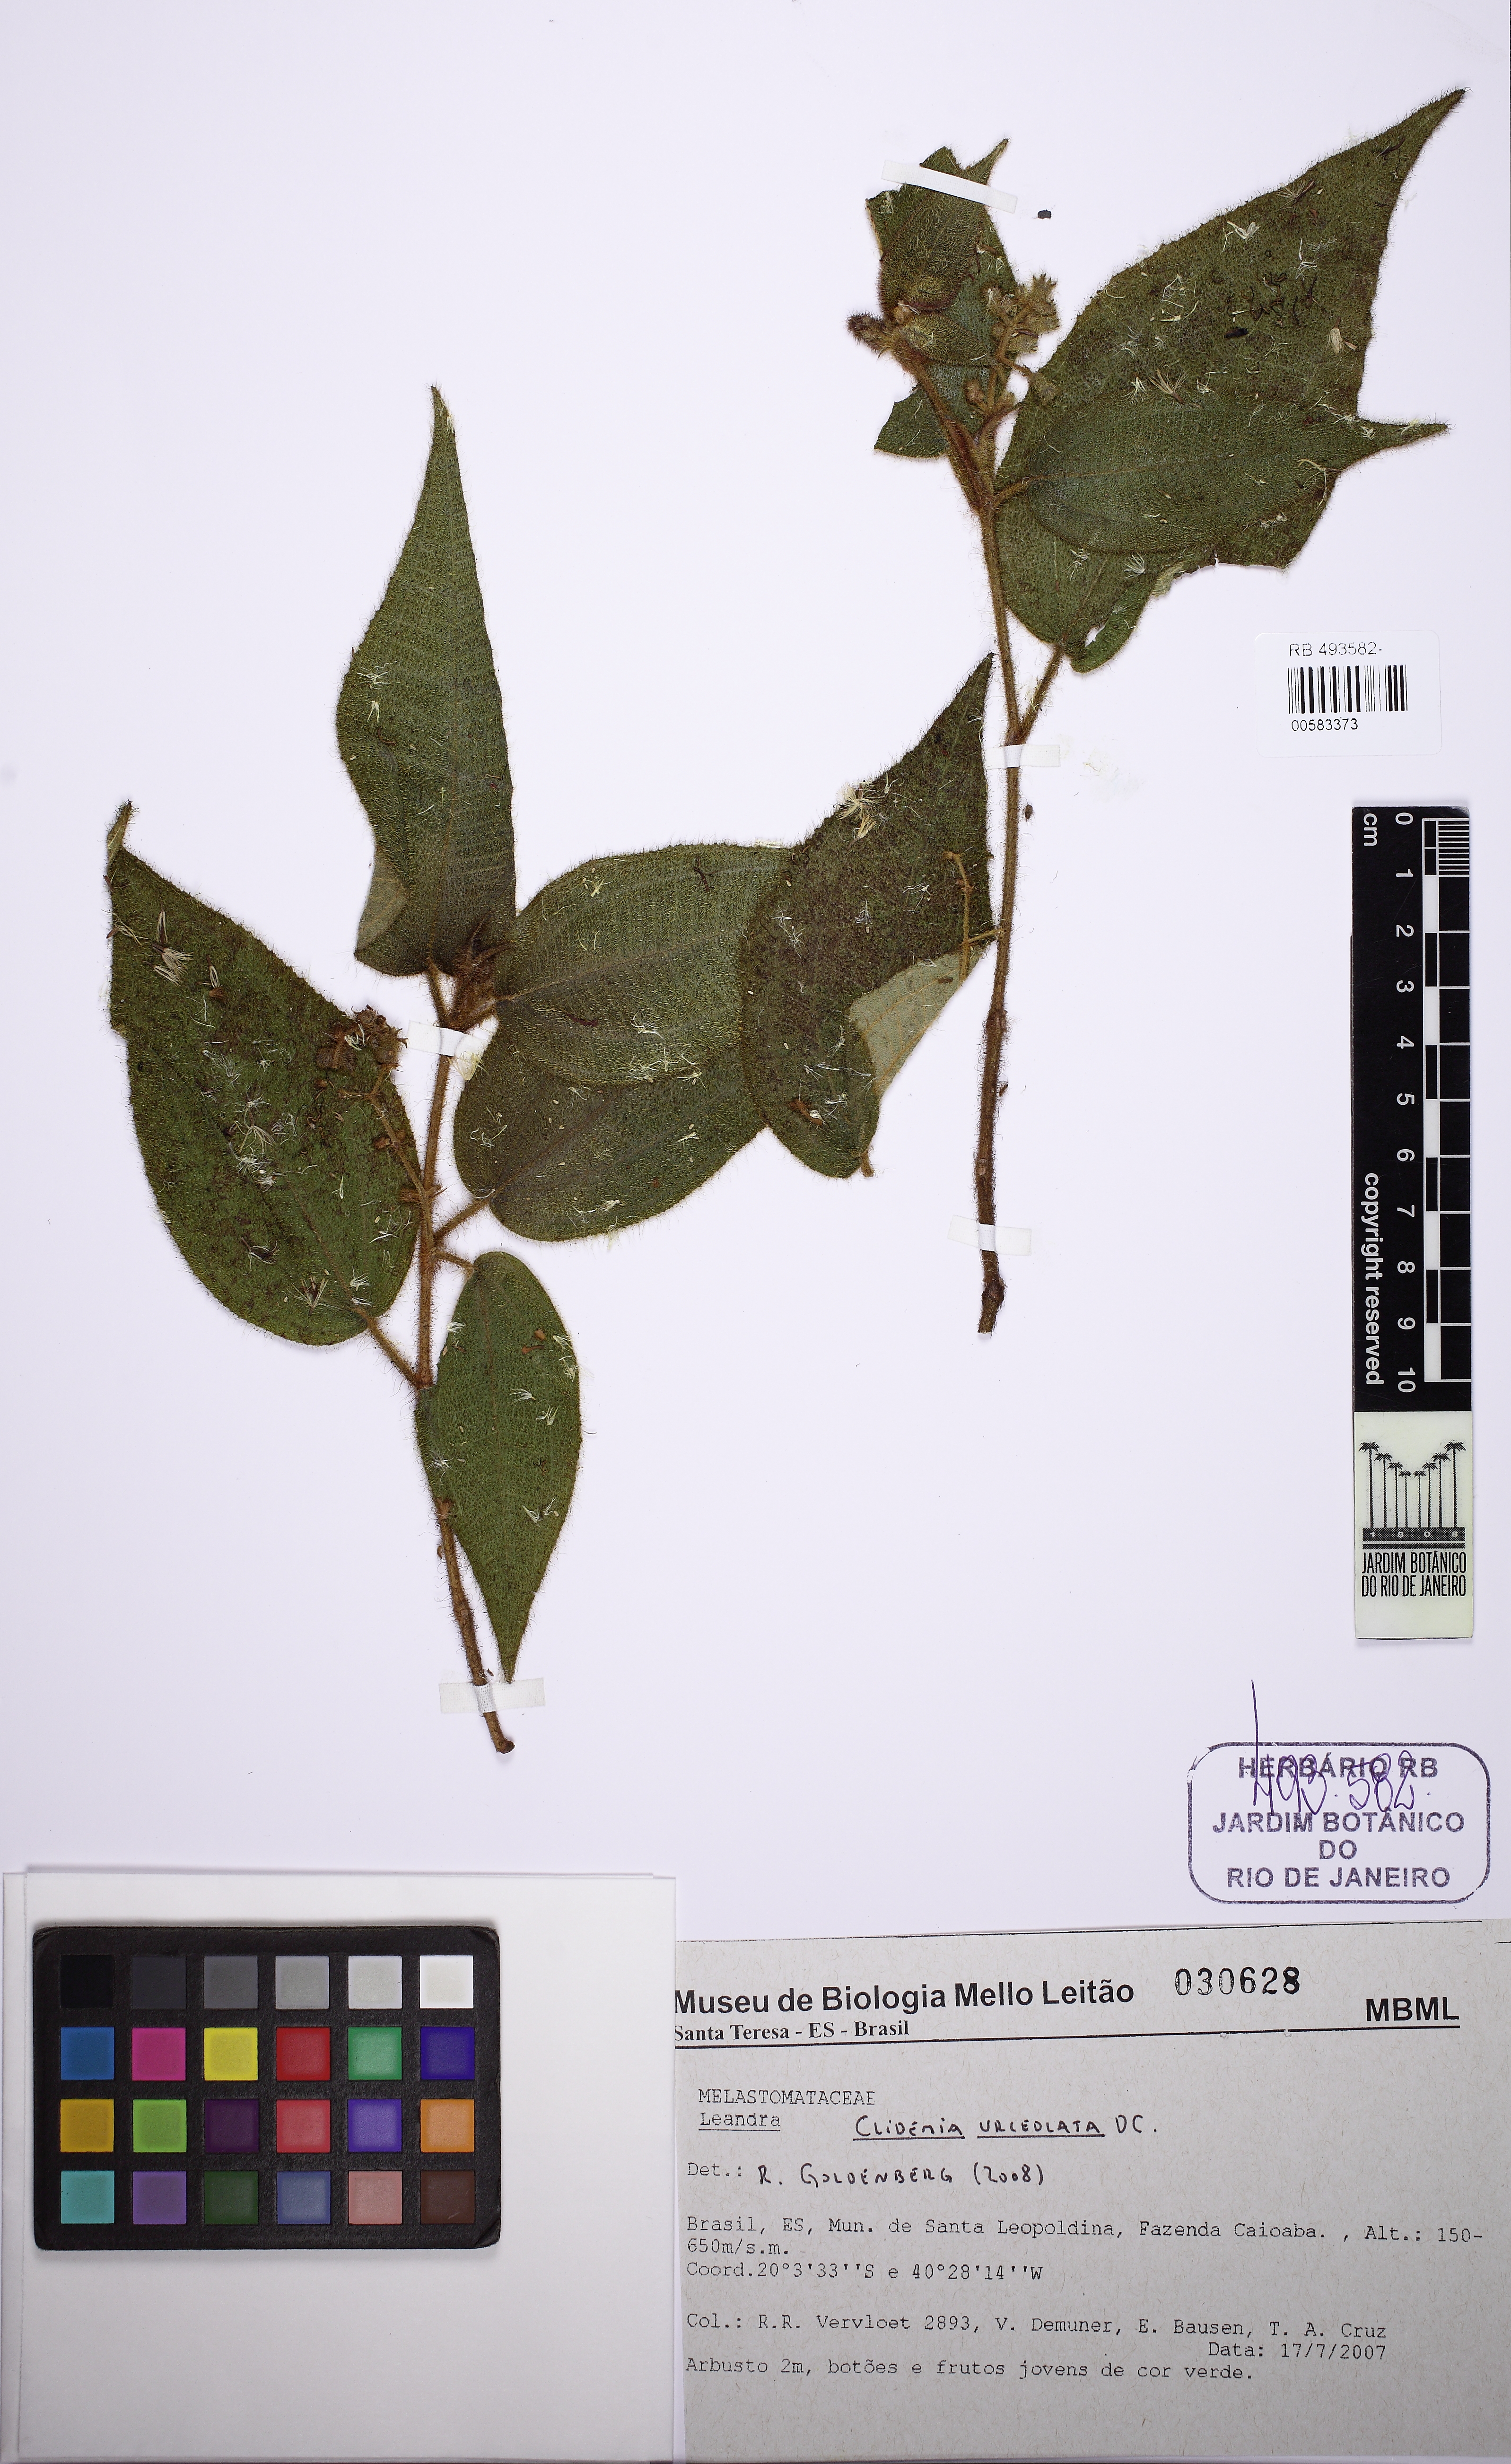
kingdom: Plantae
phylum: Tracheophyta
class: Magnoliopsida
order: Myrtales
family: Melastomataceae
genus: Miconia
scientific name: Miconia neourceolata
